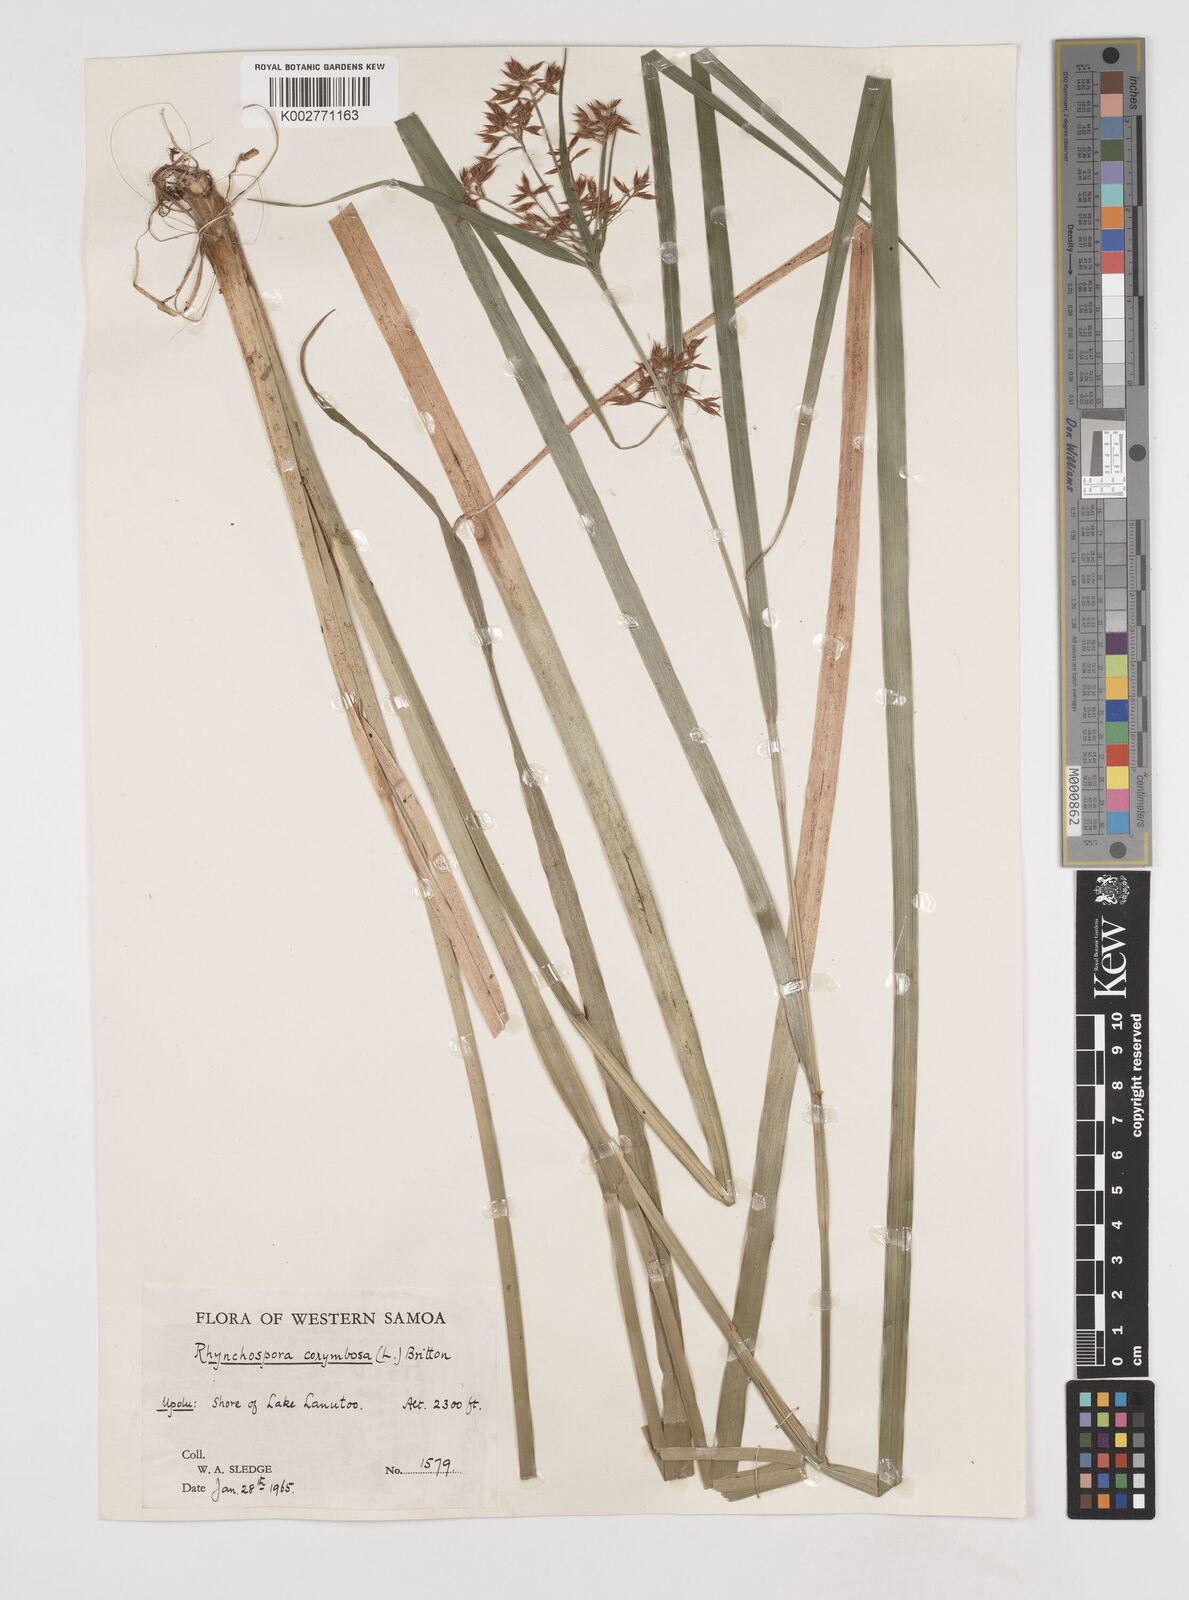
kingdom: Plantae
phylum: Tracheophyta
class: Liliopsida
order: Poales
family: Cyperaceae
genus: Rhynchospora
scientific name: Rhynchospora corymbosa
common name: Golden beak sedge
